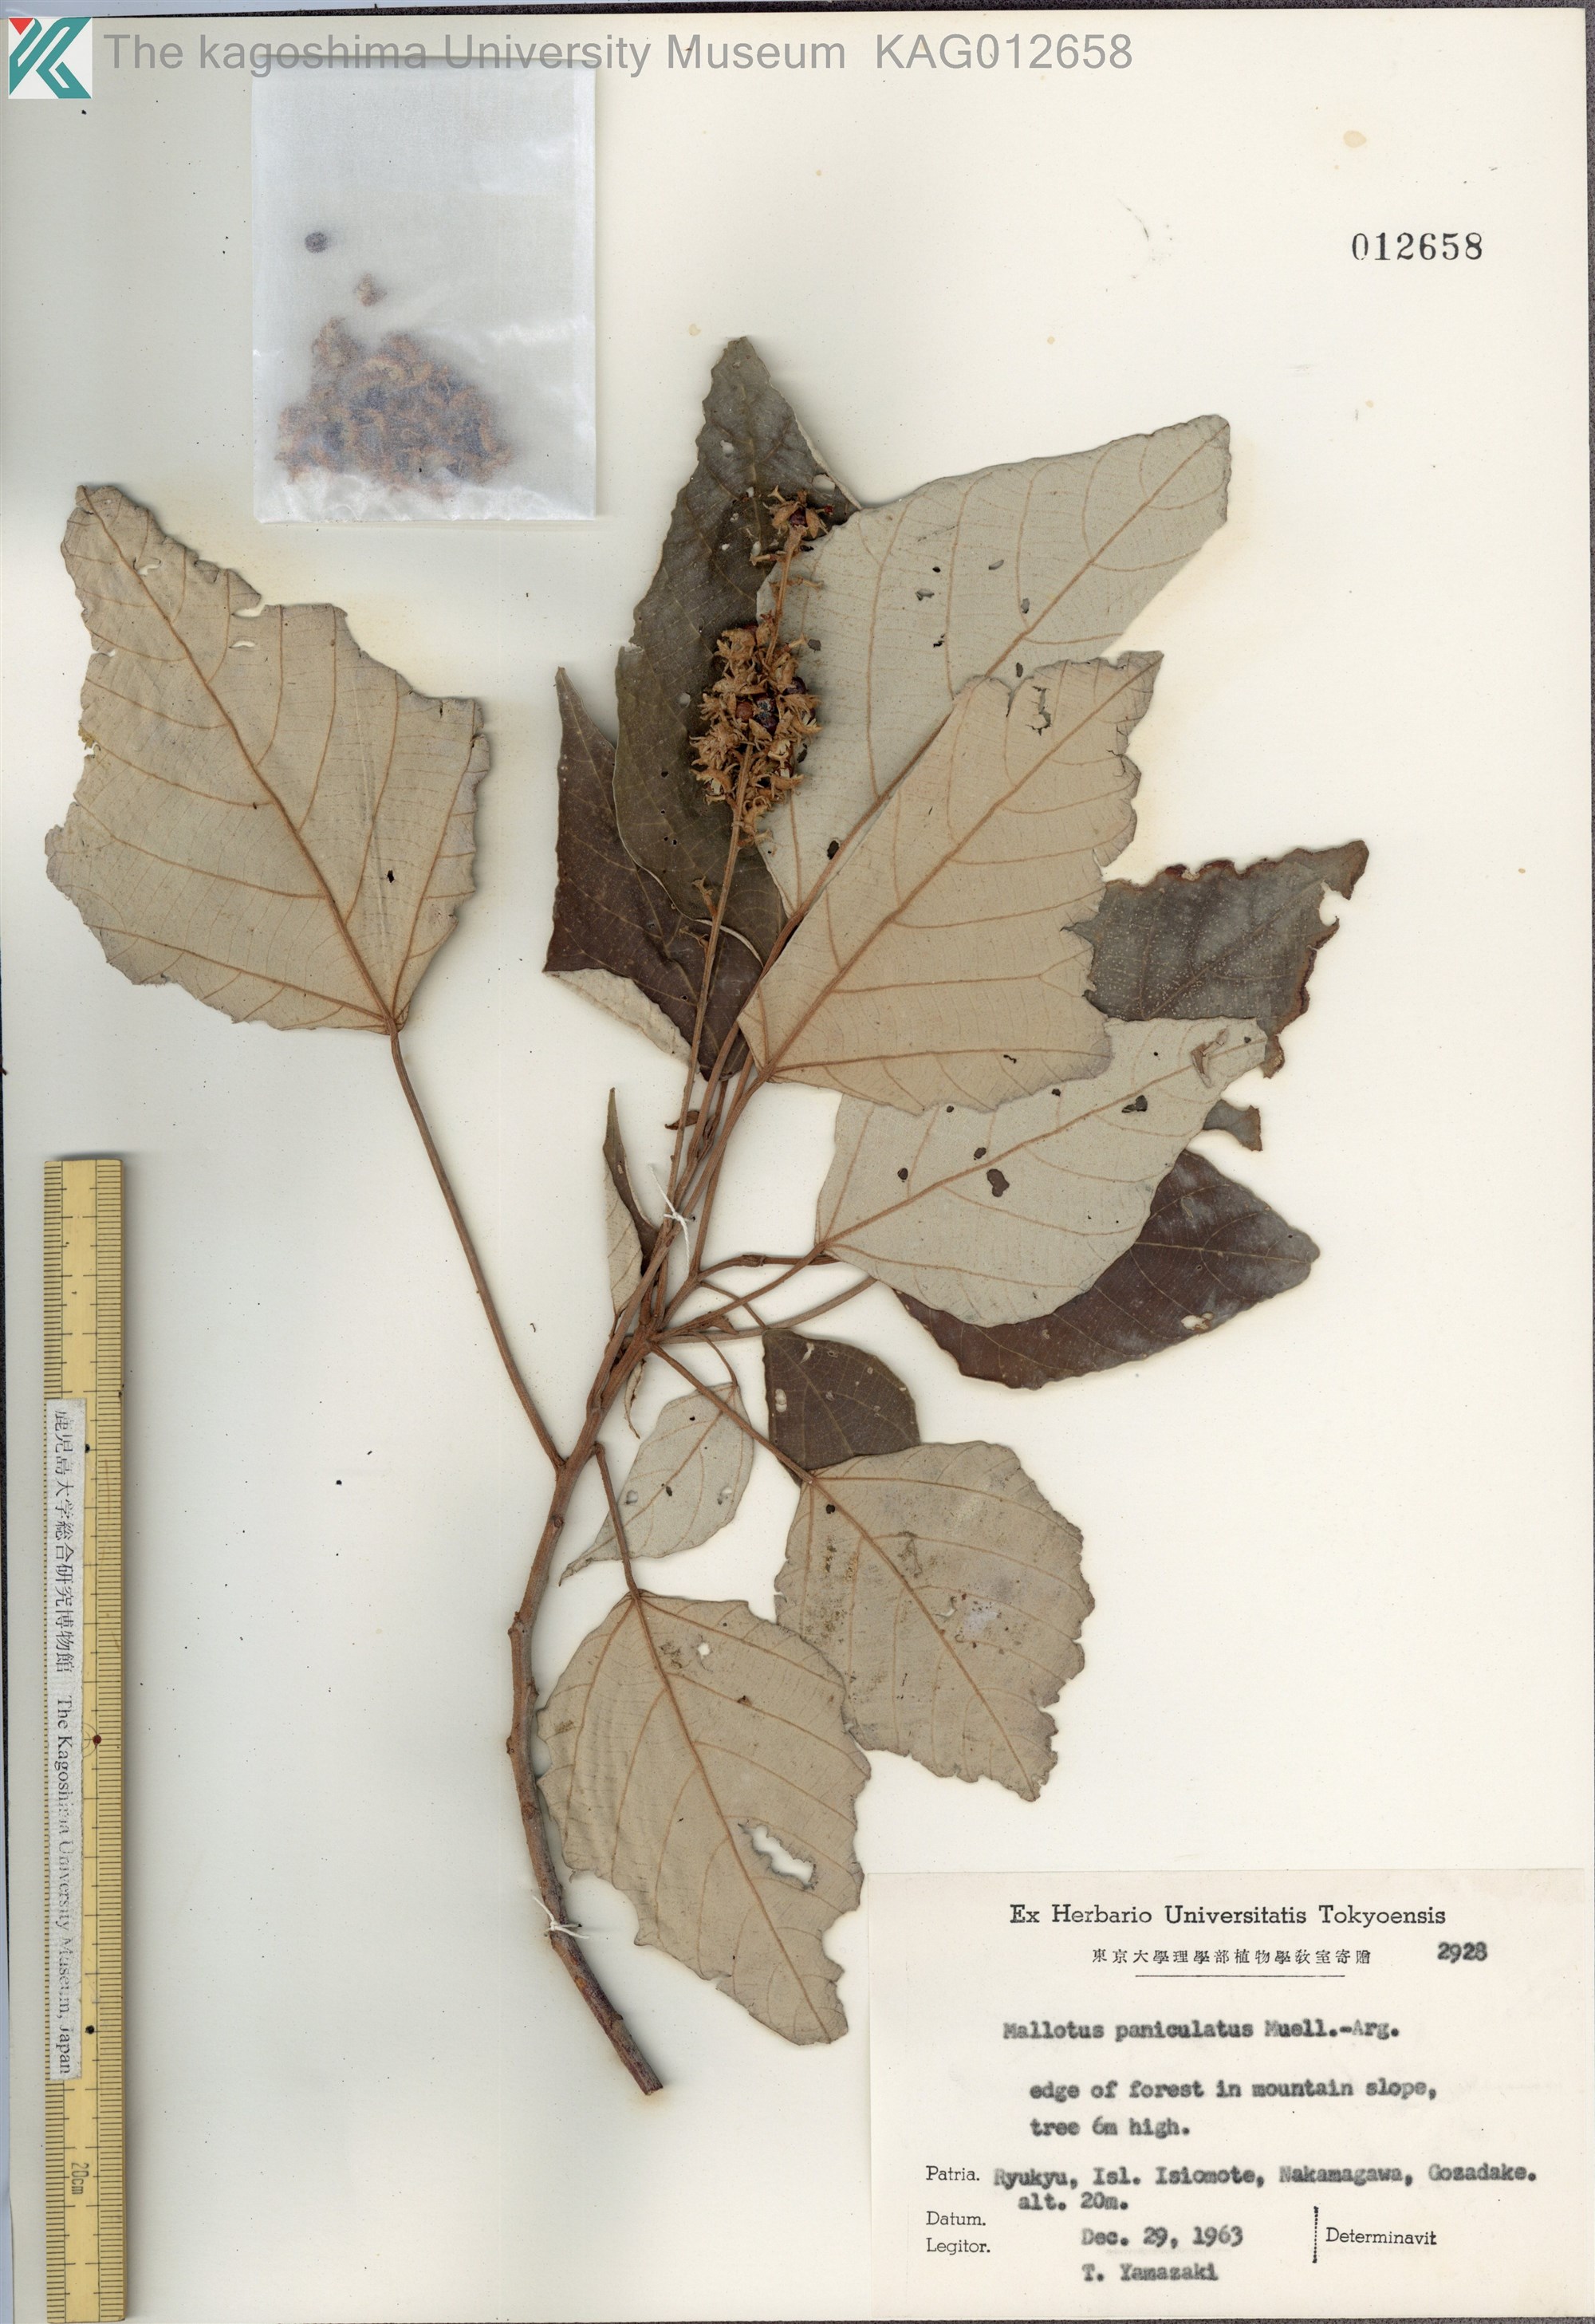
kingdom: Plantae
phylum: Tracheophyta
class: Magnoliopsida
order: Malpighiales
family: Euphorbiaceae
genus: Mallotus
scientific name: Mallotus paniculatus
